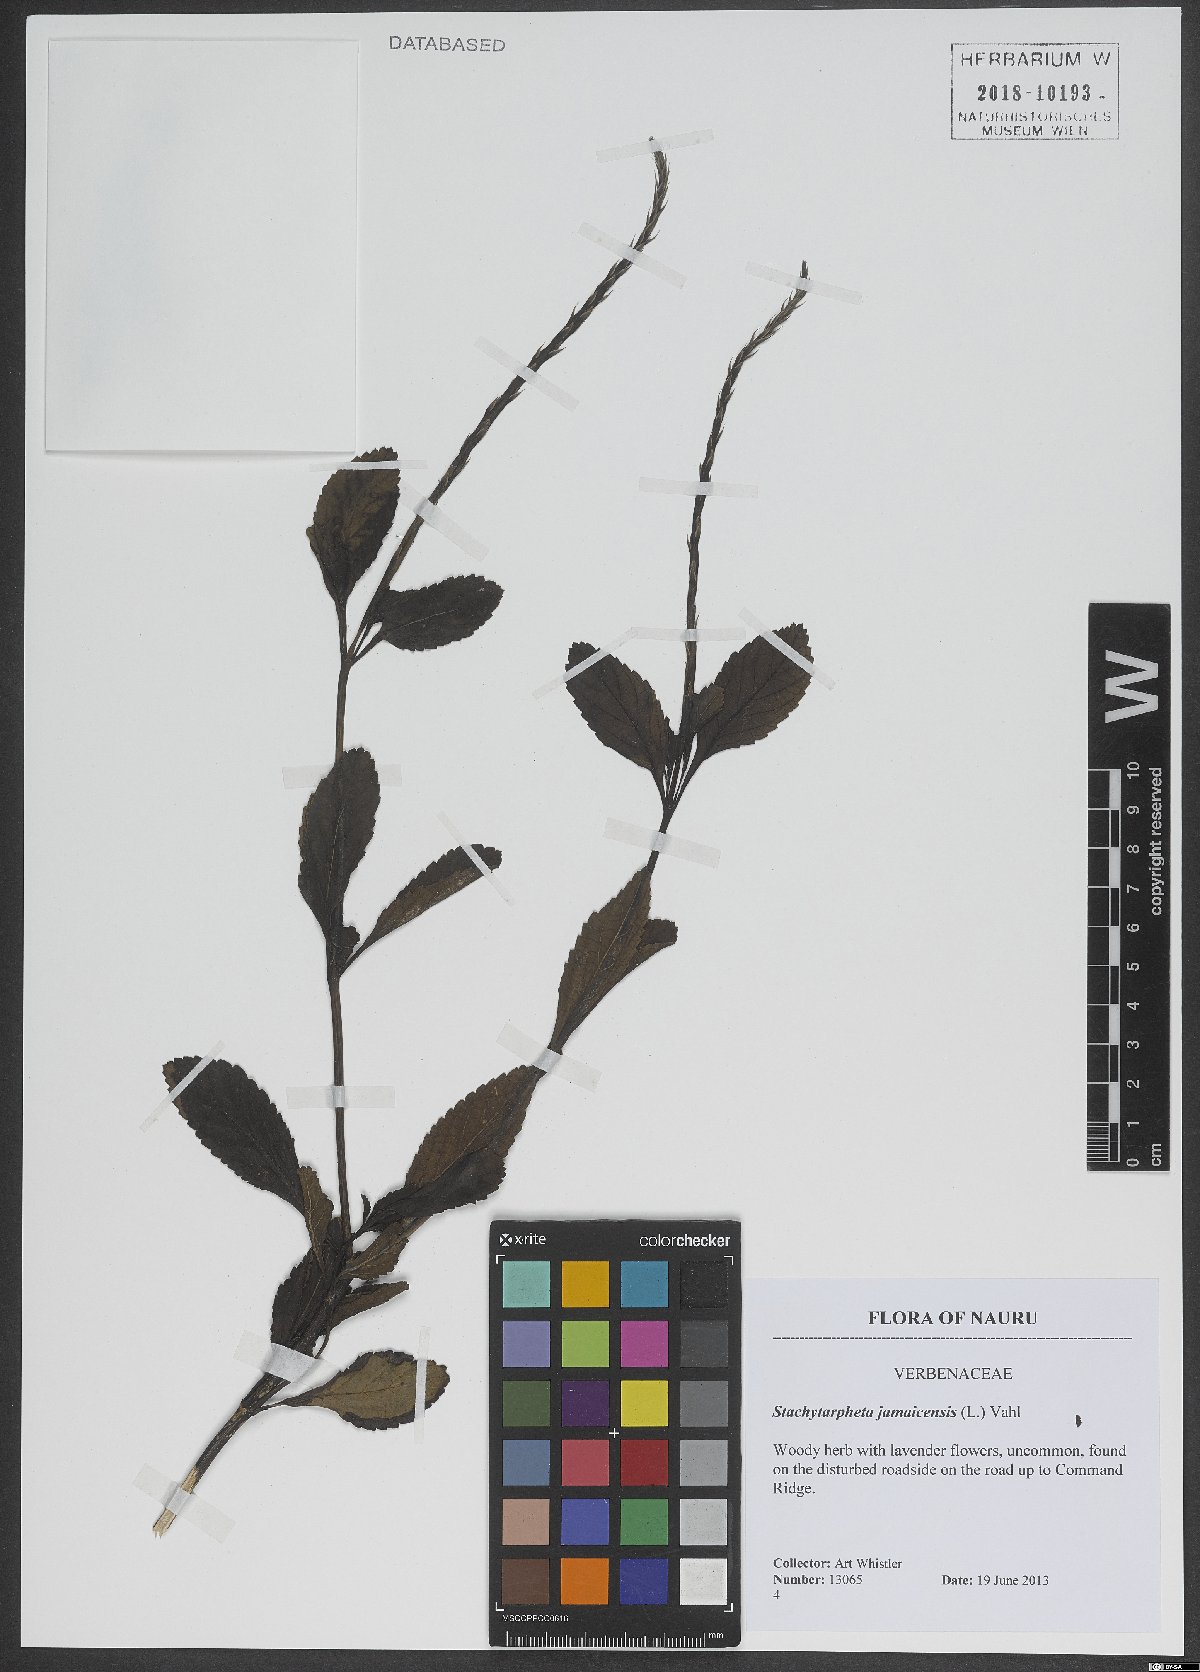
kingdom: Plantae
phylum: Tracheophyta
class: Magnoliopsida
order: Lamiales
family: Verbenaceae
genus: Stachytarpheta
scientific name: Stachytarpheta jamaicensis
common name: Light-blue snakeweed
